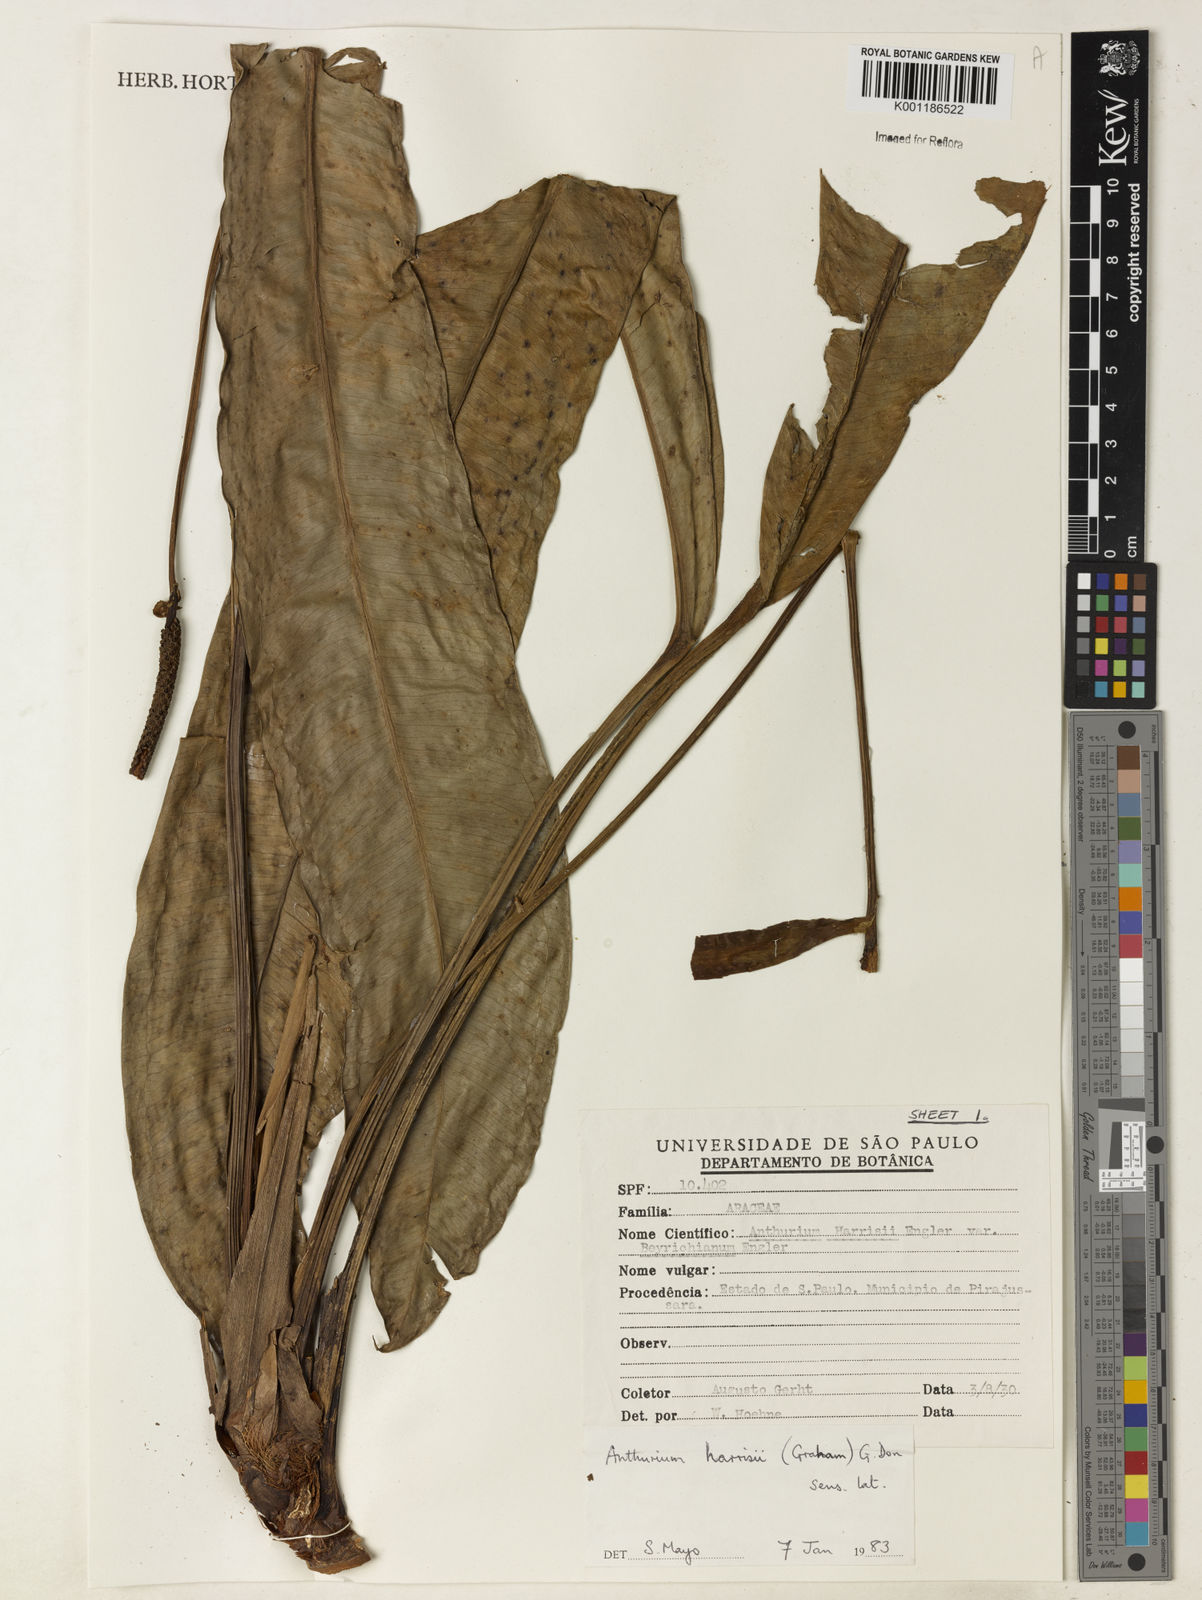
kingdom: Plantae
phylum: Tracheophyta
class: Liliopsida
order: Alismatales
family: Araceae
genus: Anthurium
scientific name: Anthurium harrisii
